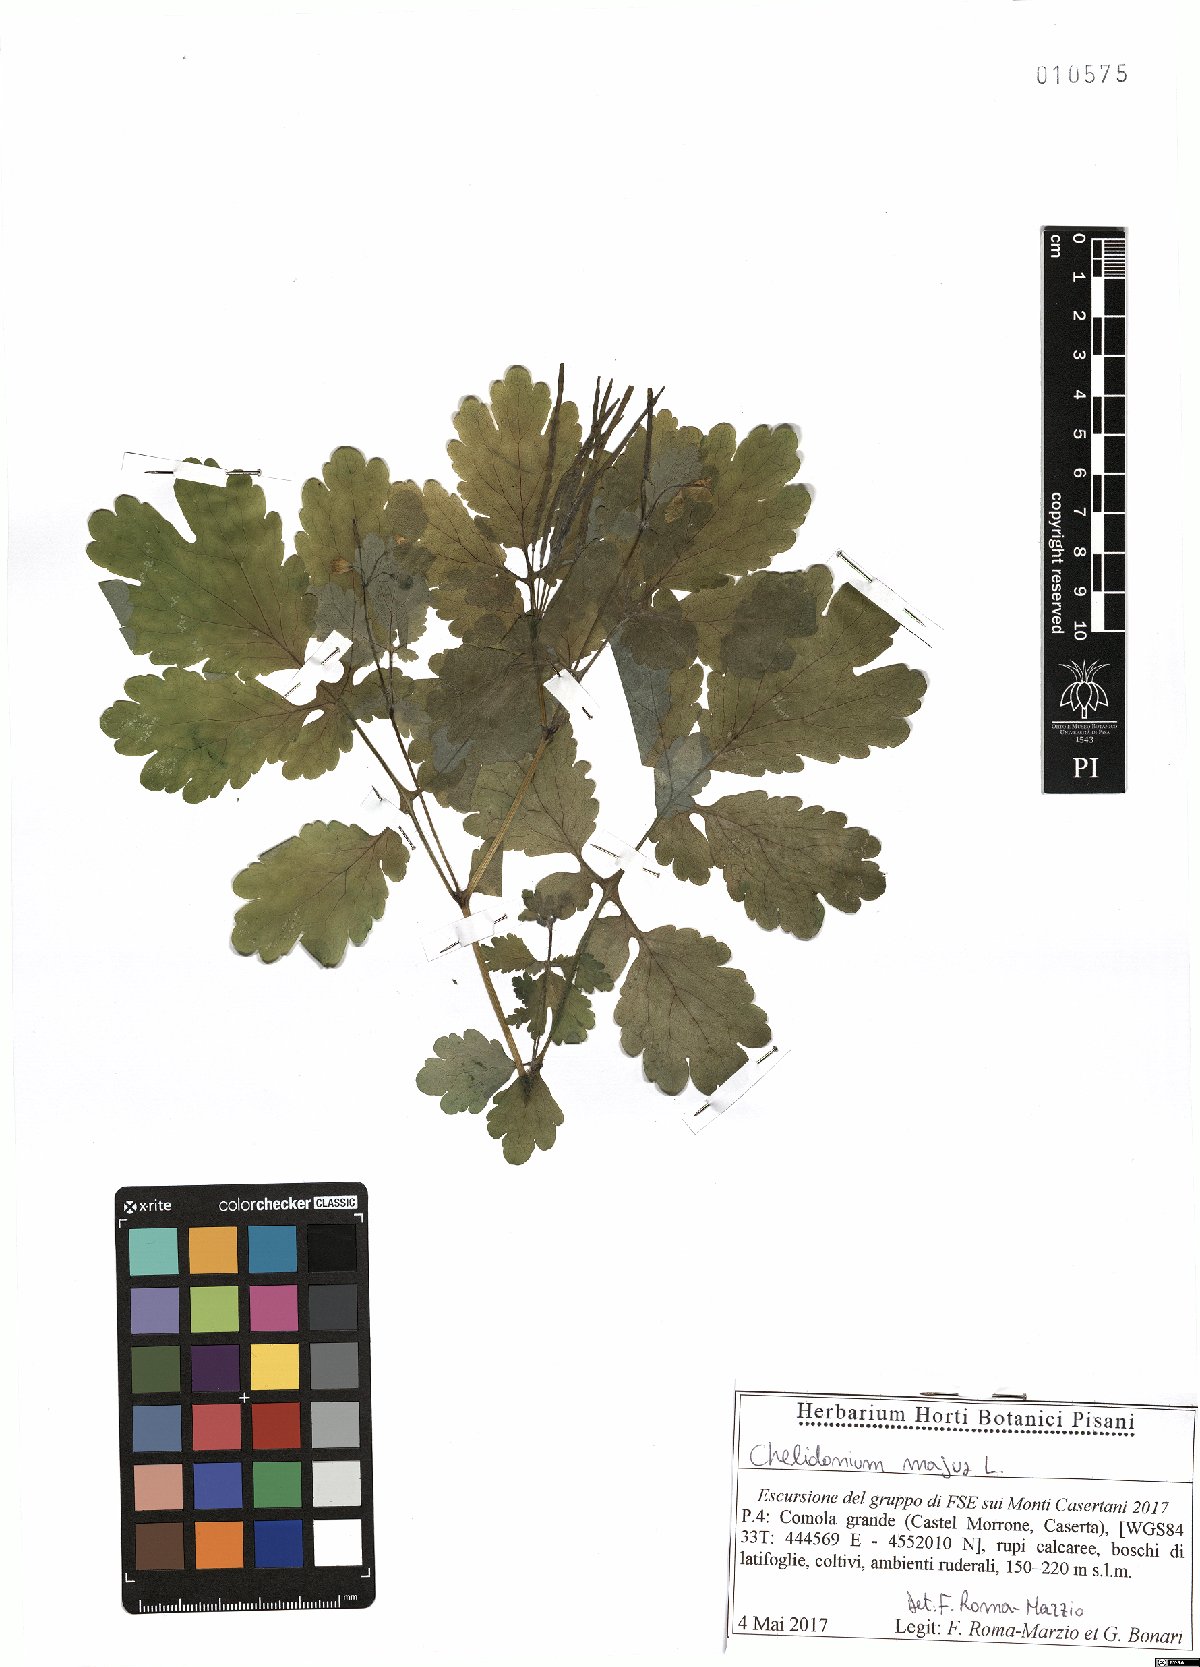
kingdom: Plantae
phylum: Tracheophyta
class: Magnoliopsida
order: Ranunculales
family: Papaveraceae
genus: Chelidonium
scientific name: Chelidonium majus
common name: Greater celandine
